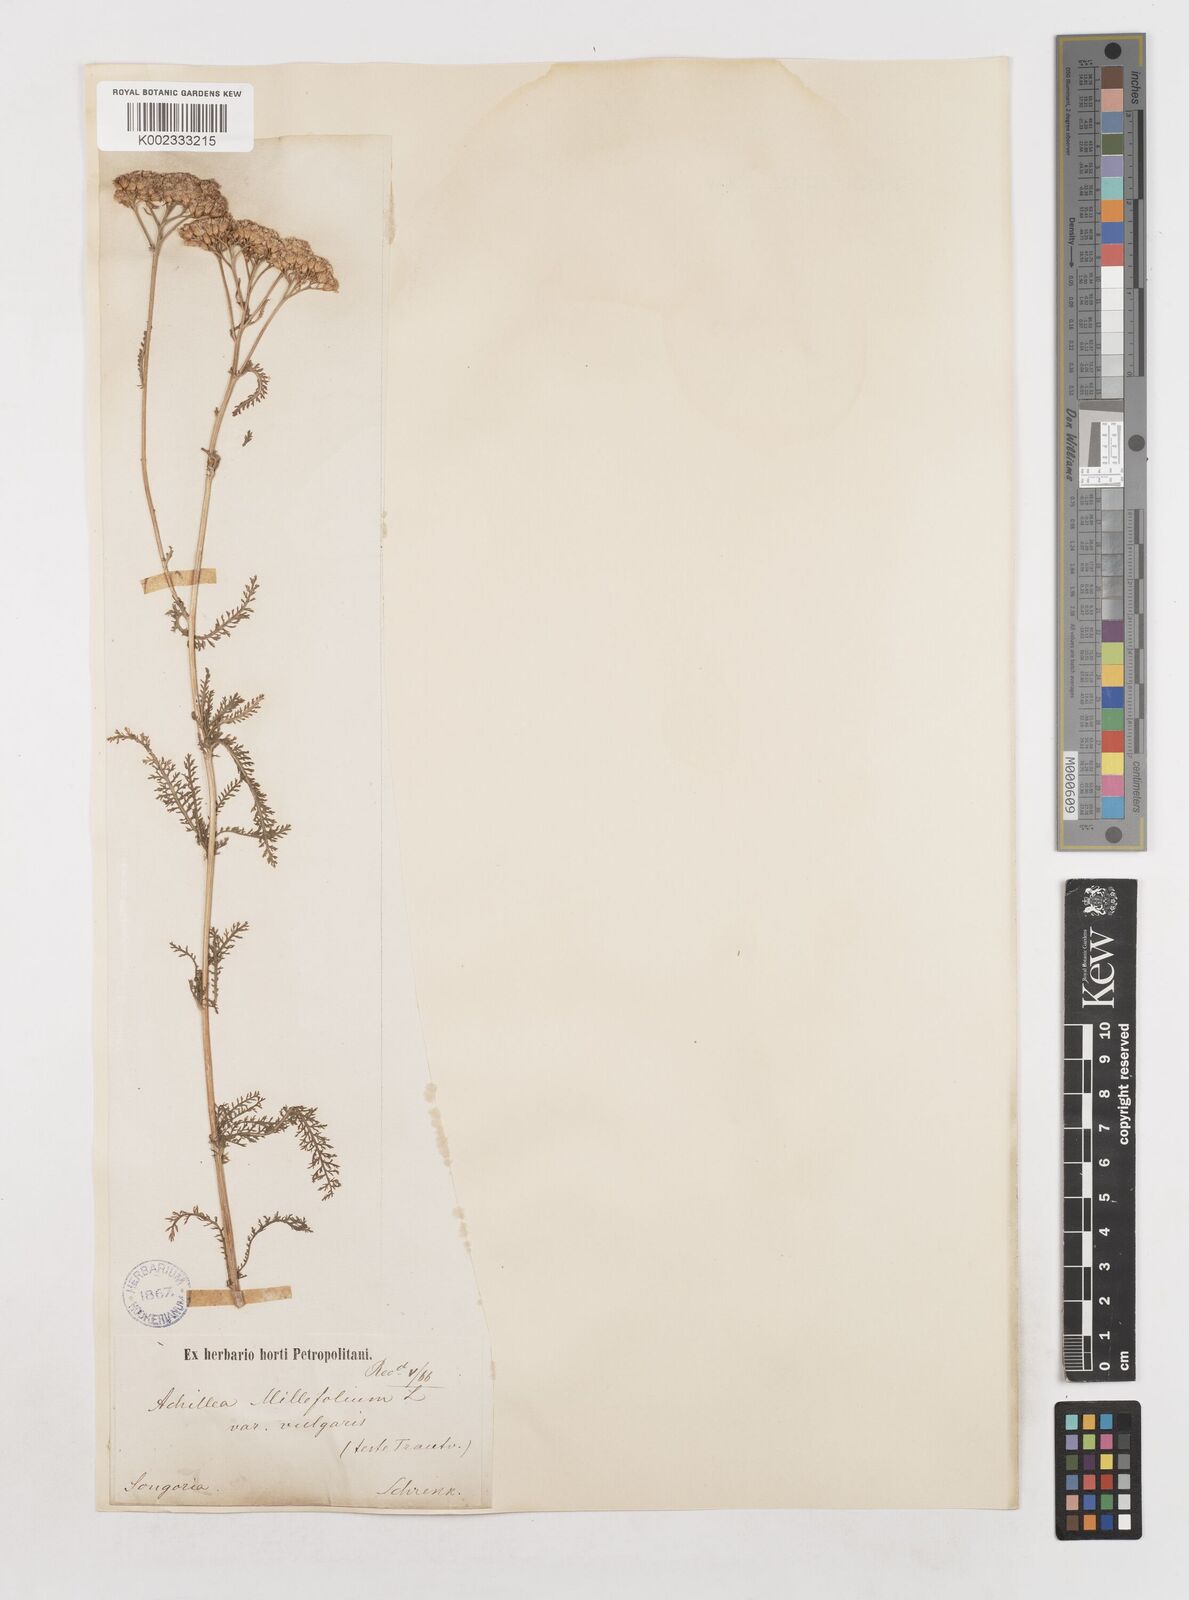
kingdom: Plantae
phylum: Tracheophyta
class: Magnoliopsida
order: Asterales
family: Asteraceae
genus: Achillea
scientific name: Achillea millefolium
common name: Yarrow
